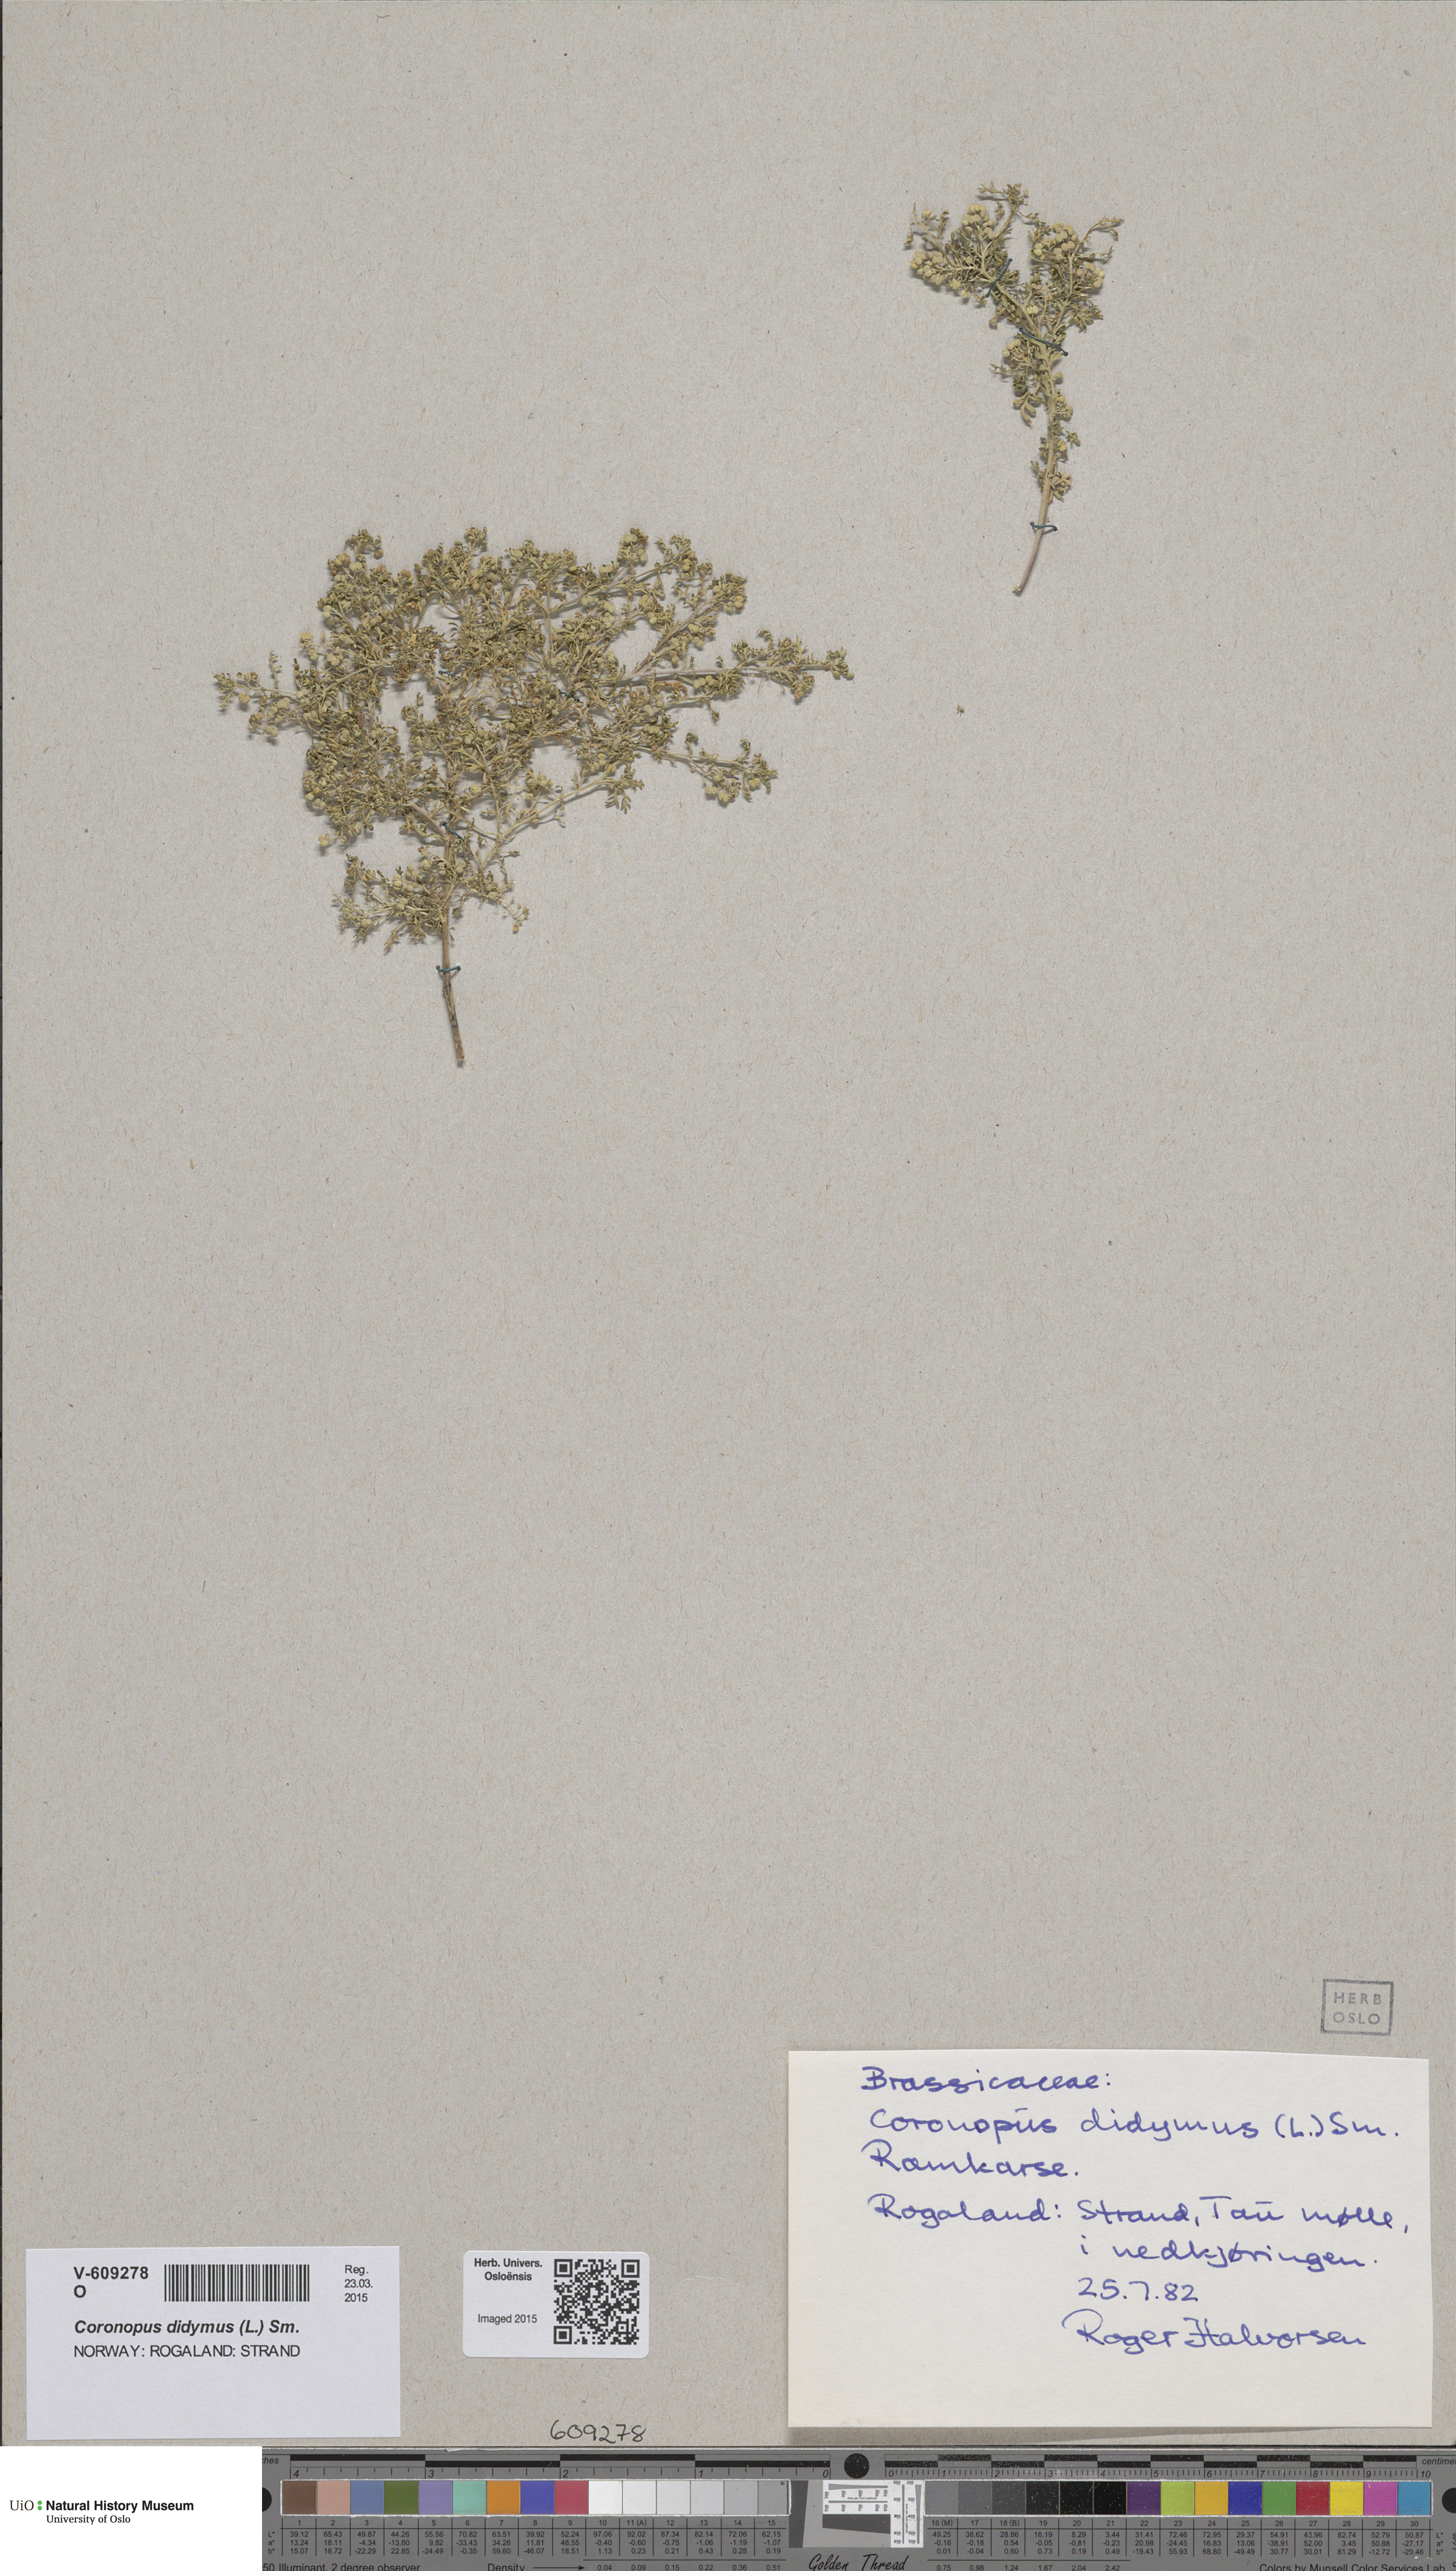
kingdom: Plantae
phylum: Tracheophyta
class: Magnoliopsida
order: Brassicales
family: Brassicaceae
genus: Lepidium
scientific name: Lepidium didymum
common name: Lesser swinecress
